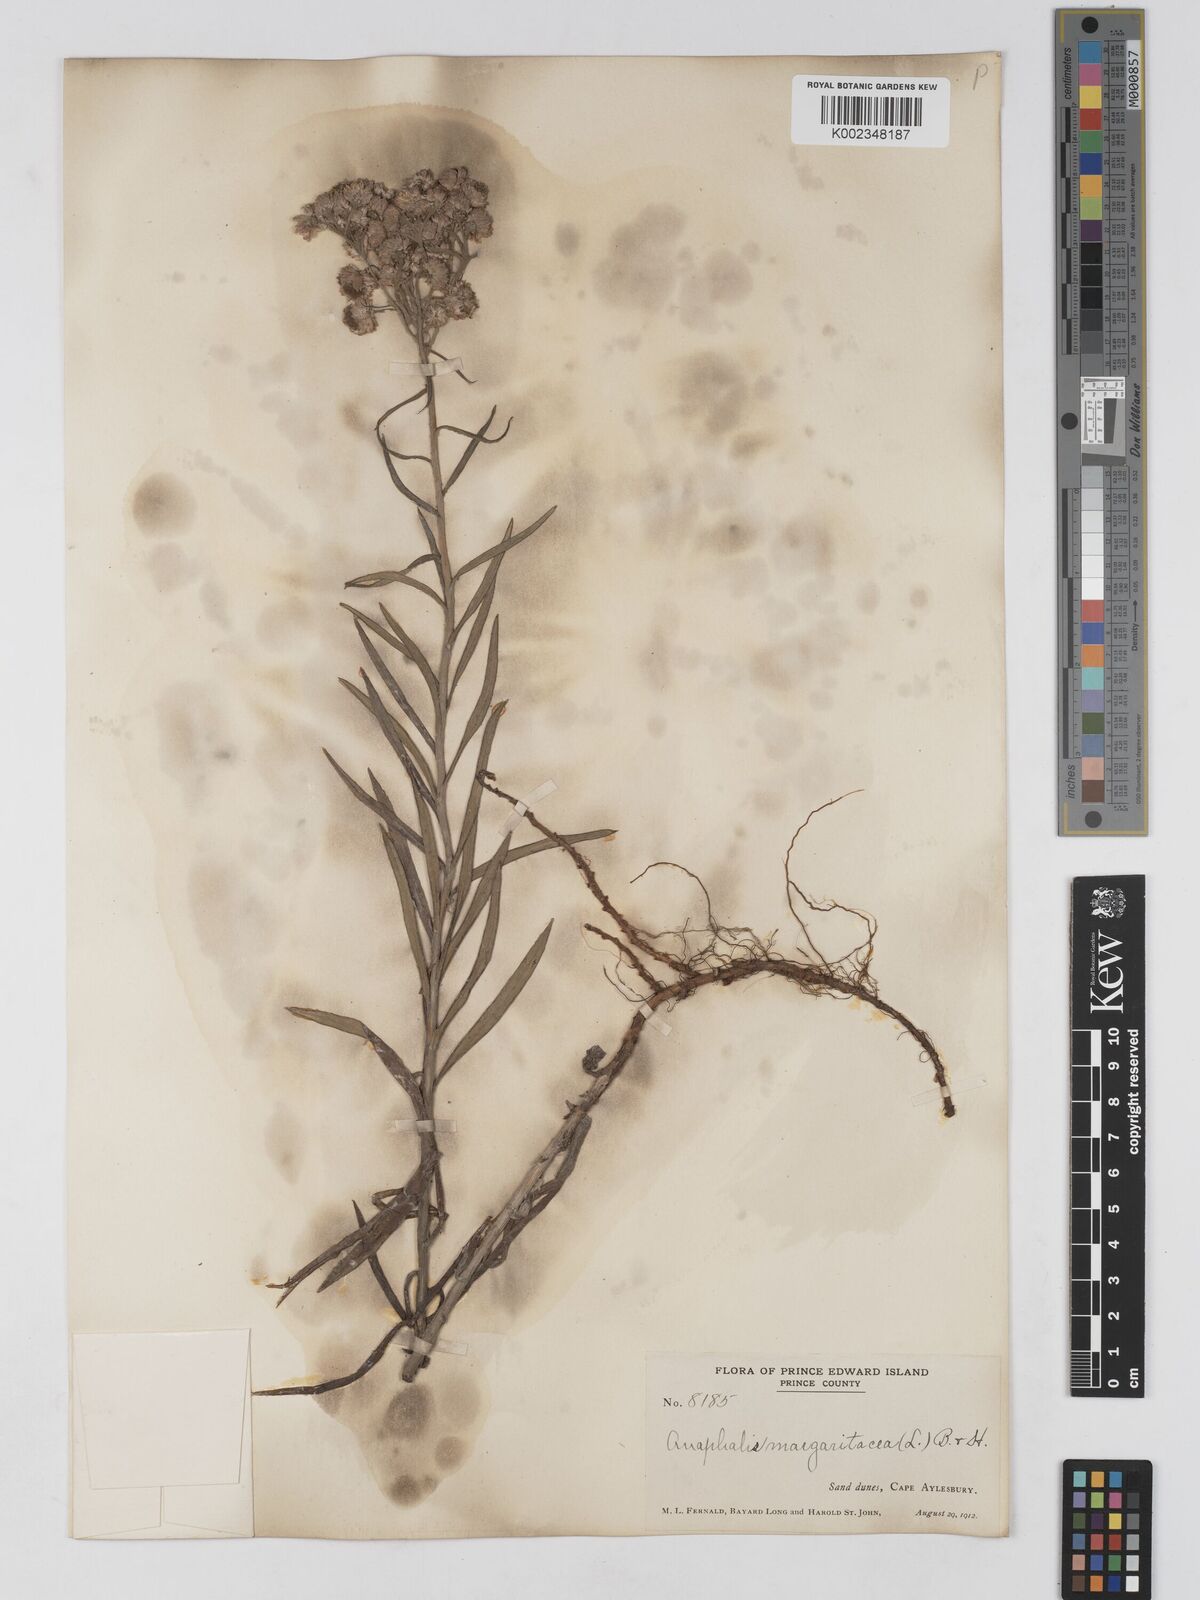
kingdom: Plantae
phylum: Tracheophyta
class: Magnoliopsida
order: Asterales
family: Asteraceae
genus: Anaphalis
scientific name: Anaphalis margaritacea
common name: Pearly everlasting
